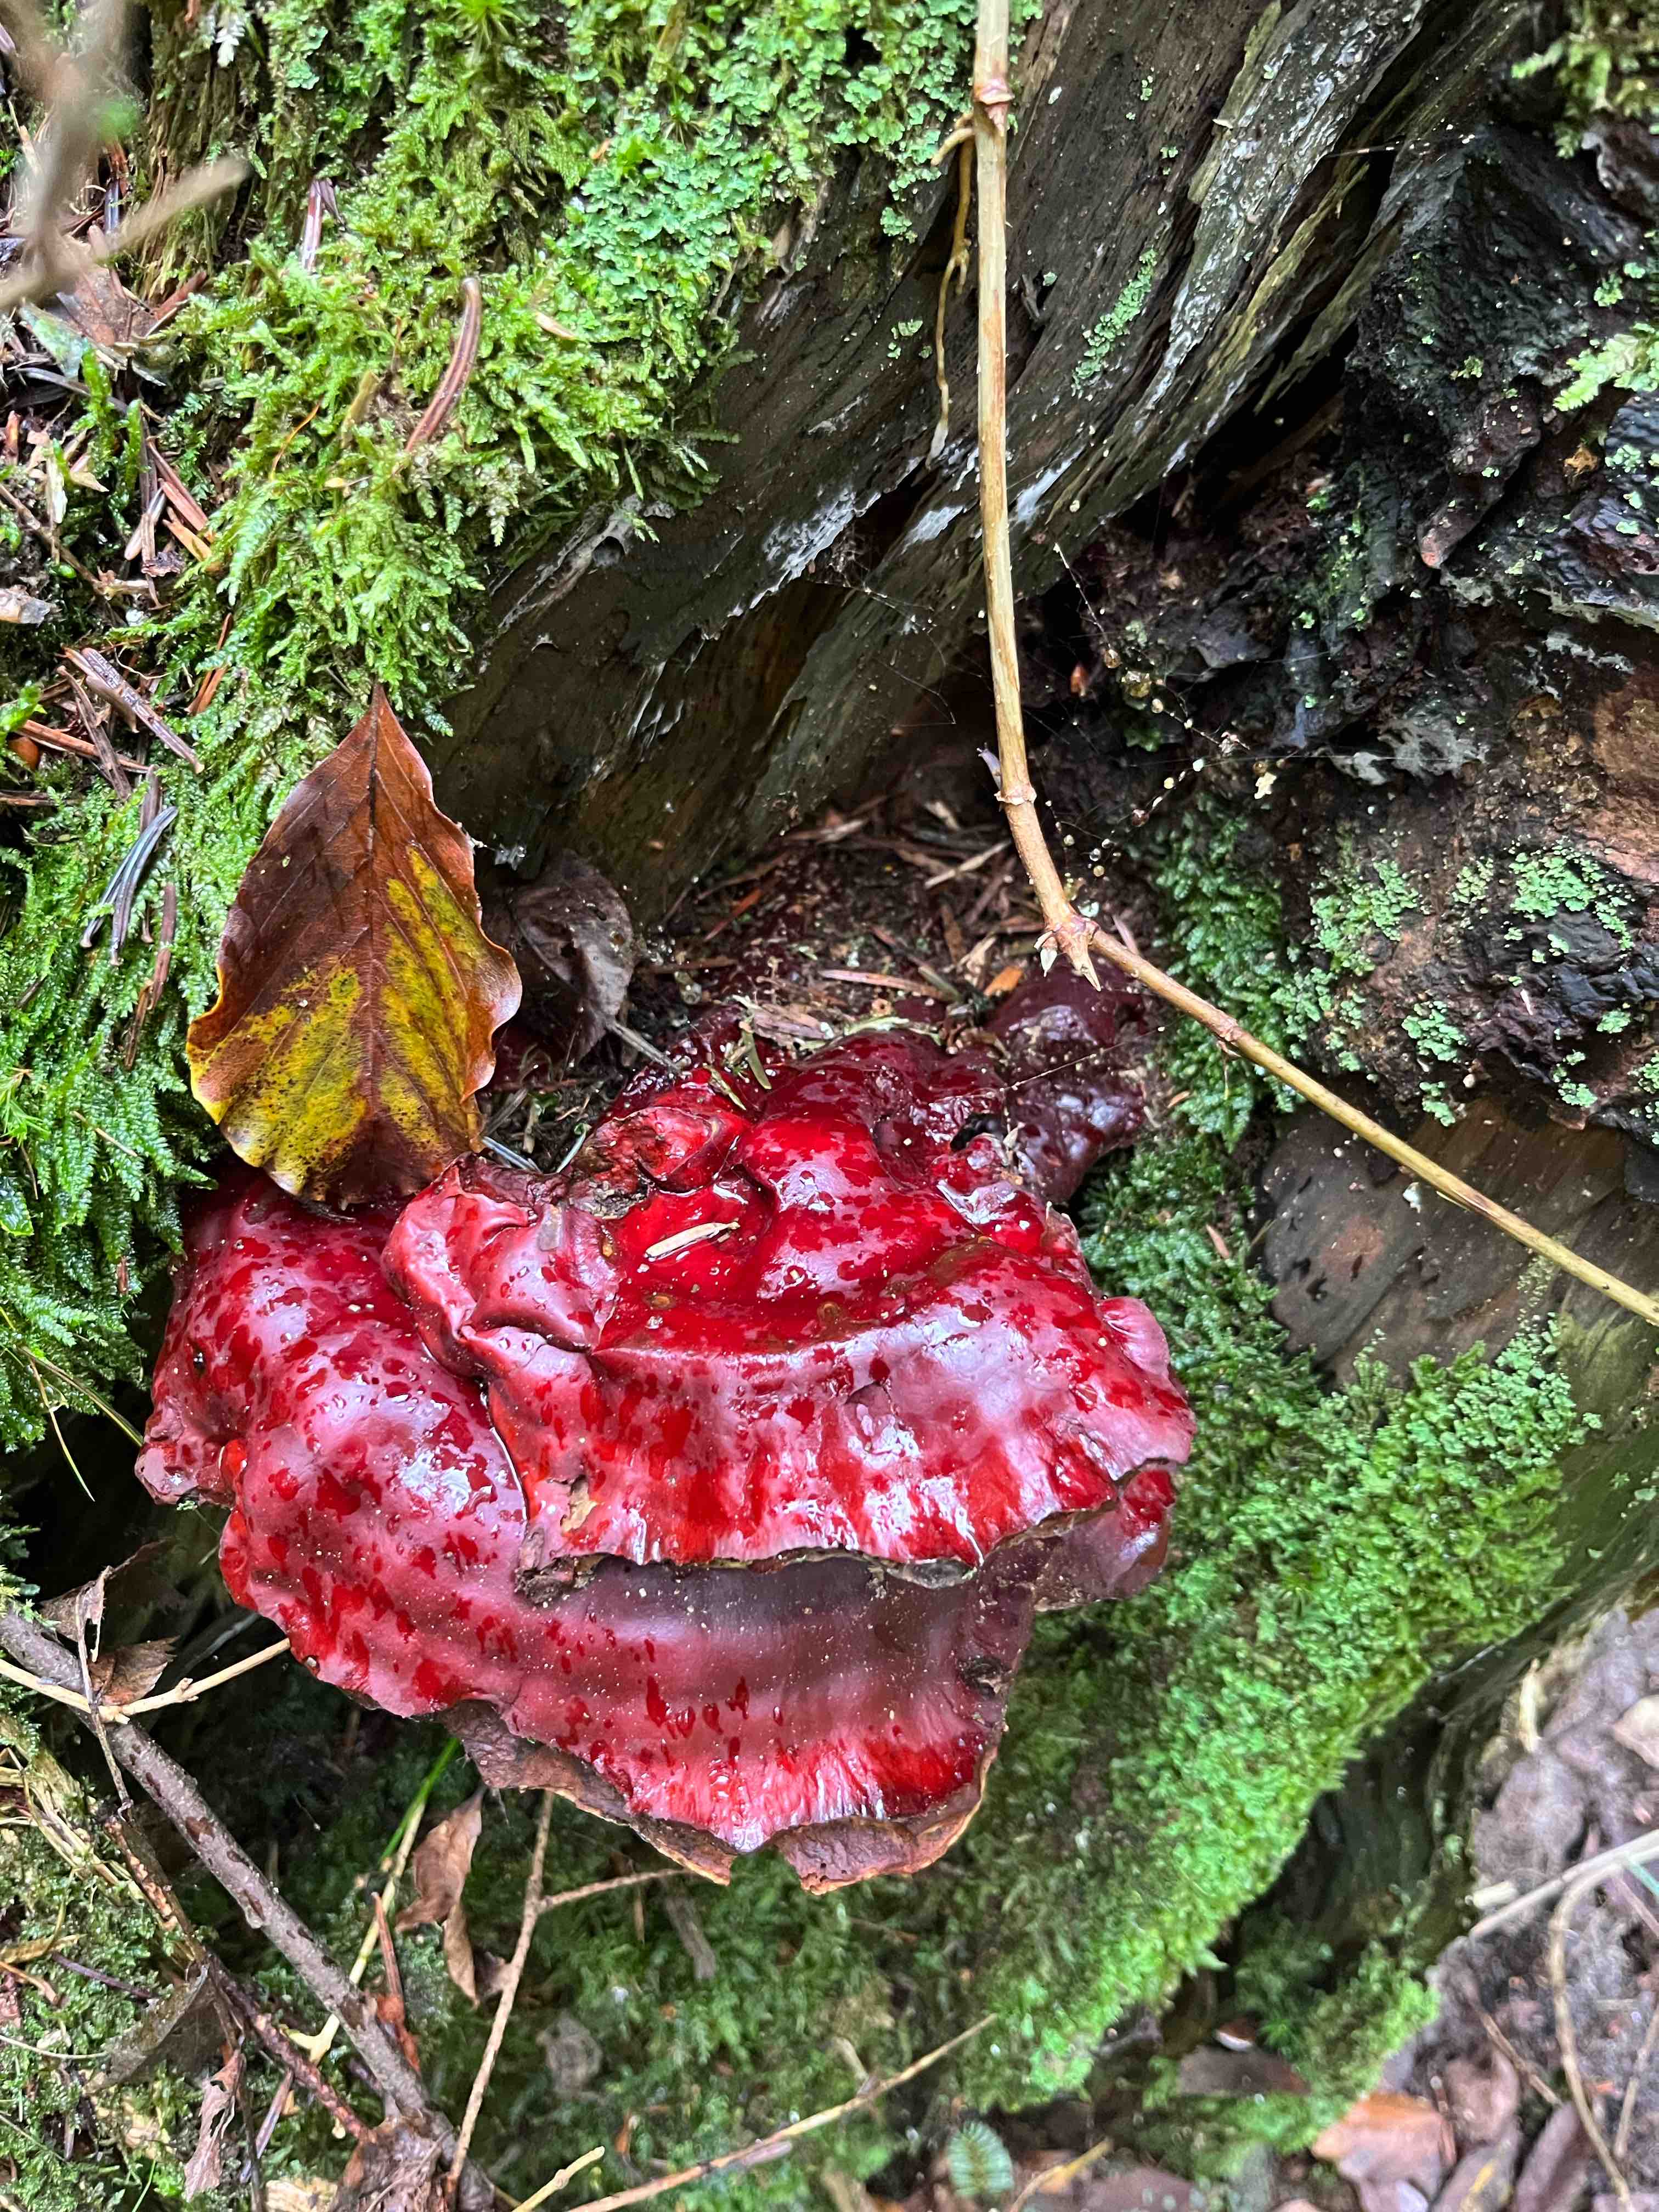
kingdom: Fungi
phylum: Basidiomycota
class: Agaricomycetes
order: Polyporales
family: Polyporaceae
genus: Ganoderma
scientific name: Ganoderma lucidum
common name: skinnende lakporesvamp
